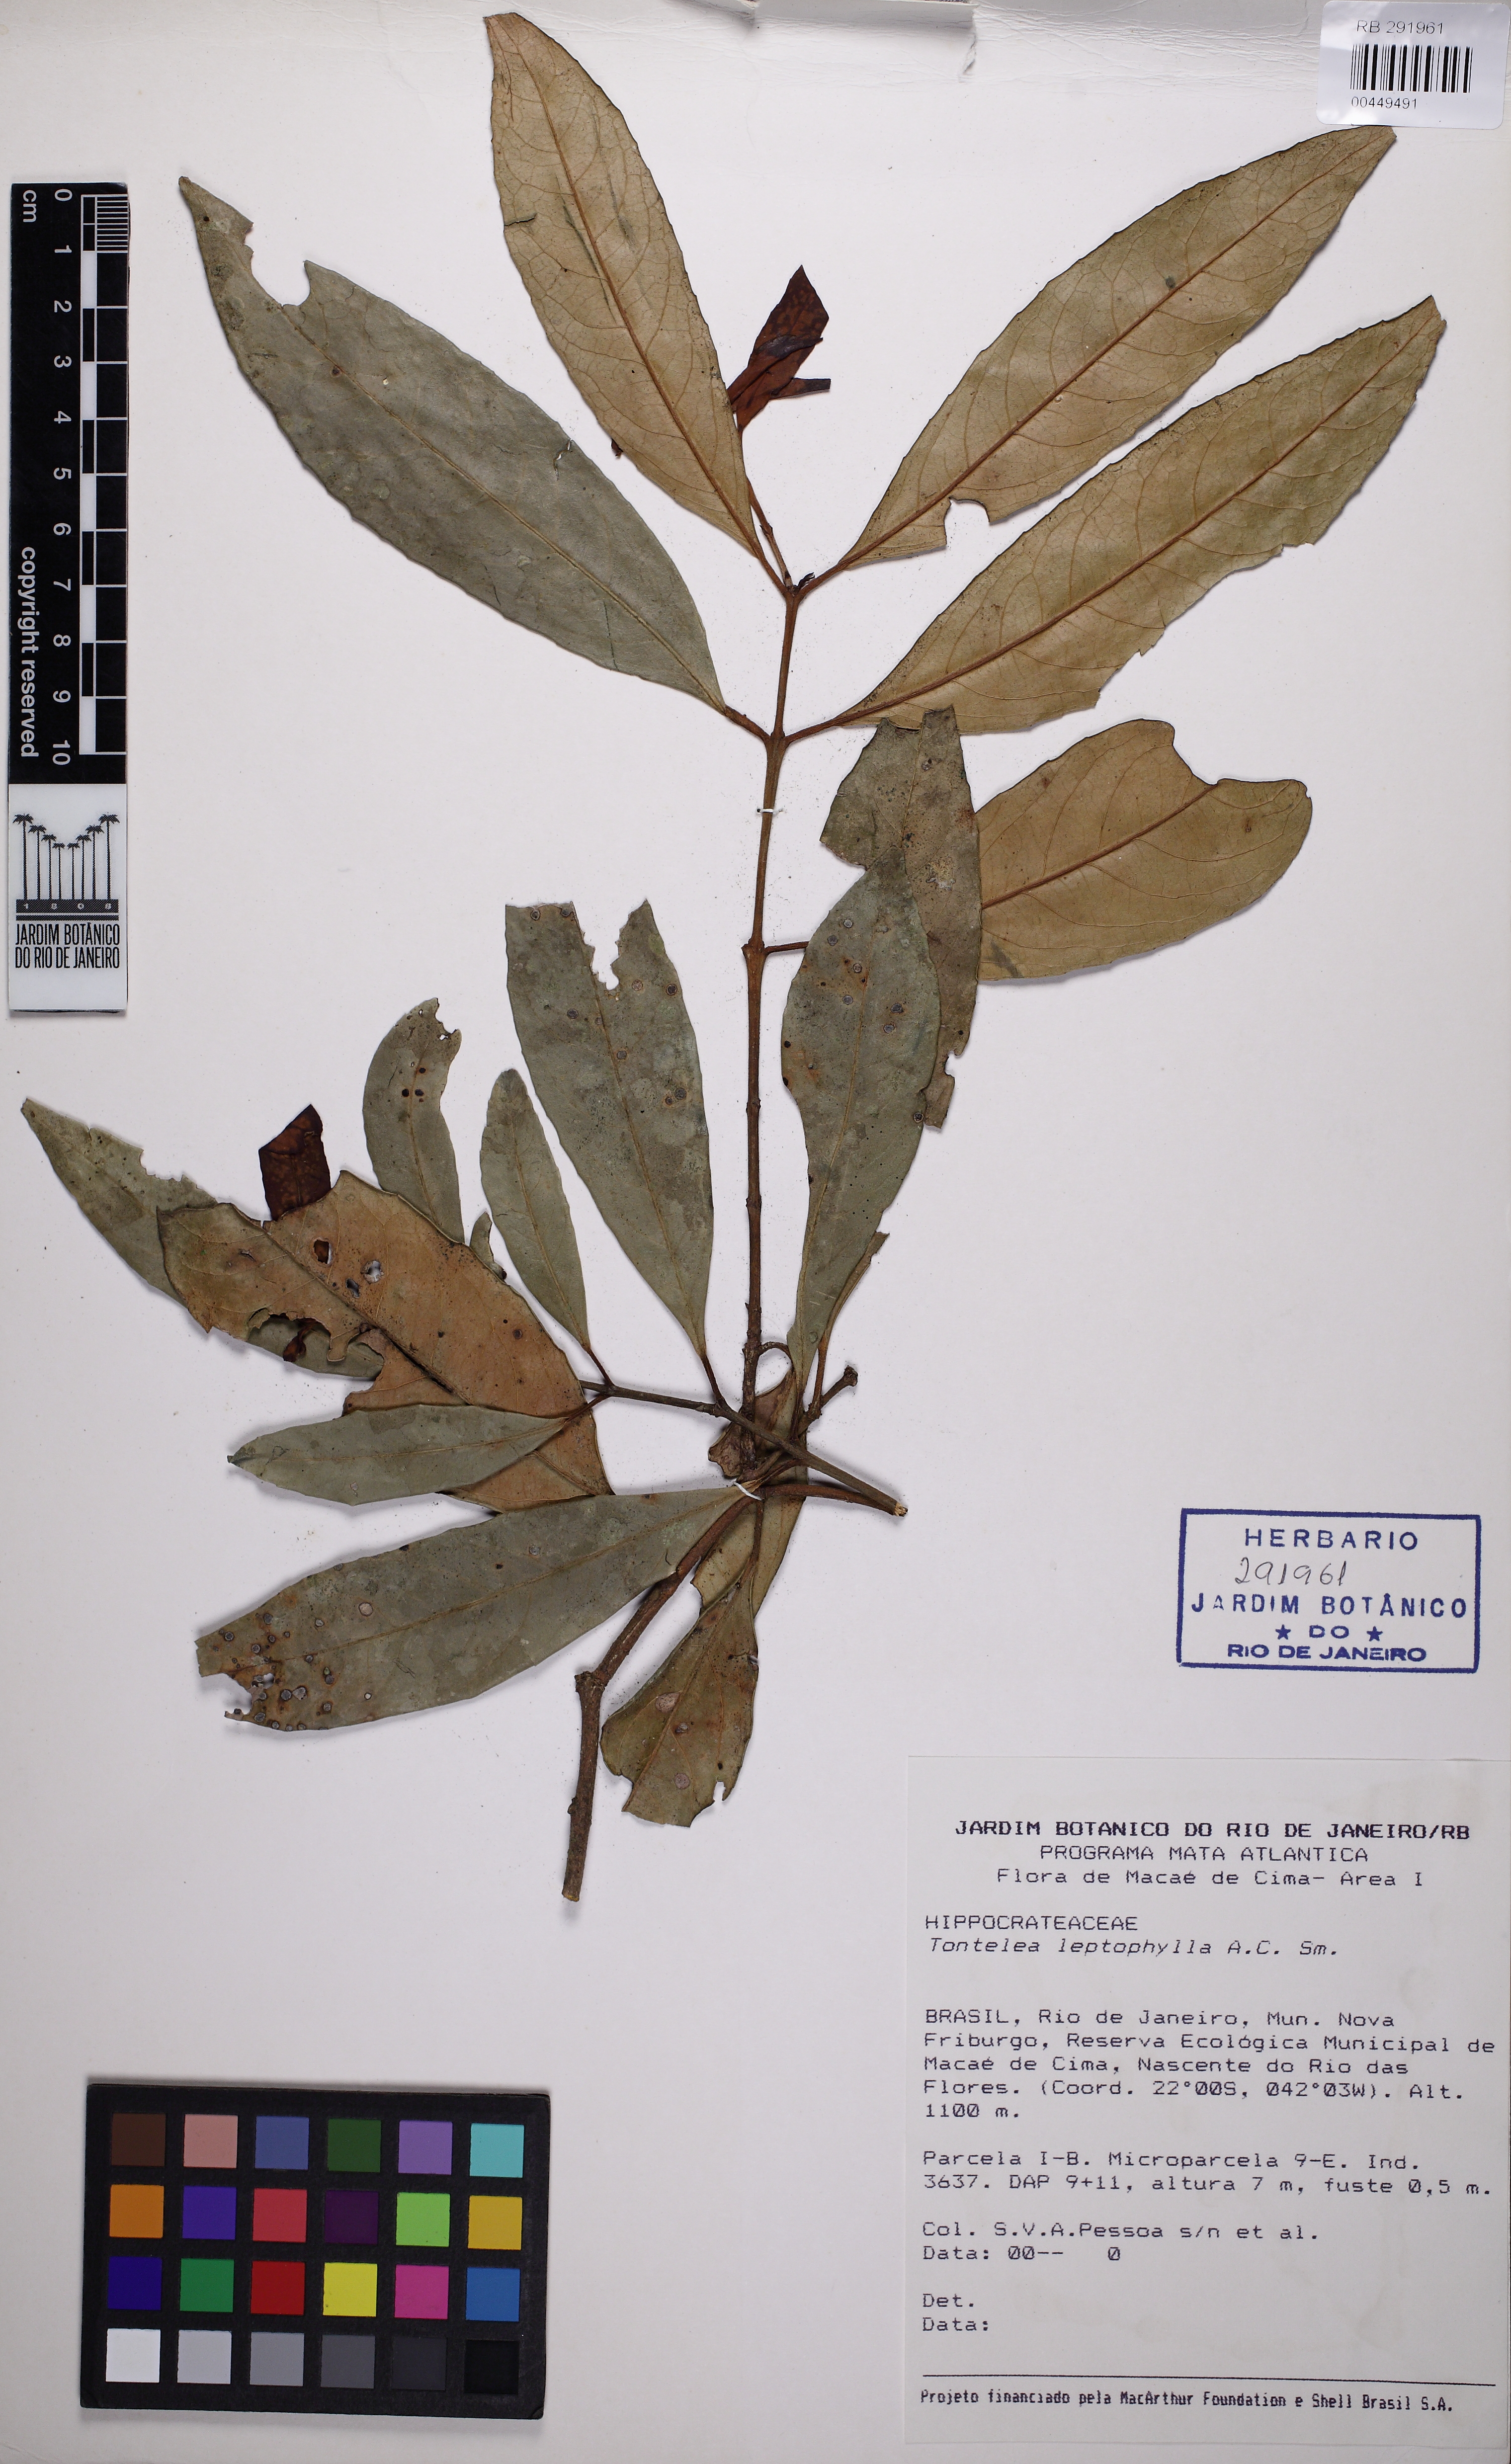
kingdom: Plantae
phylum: Tracheophyta
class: Magnoliopsida
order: Celastrales
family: Celastraceae
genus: Tontelea
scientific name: Tontelea leptophylla
